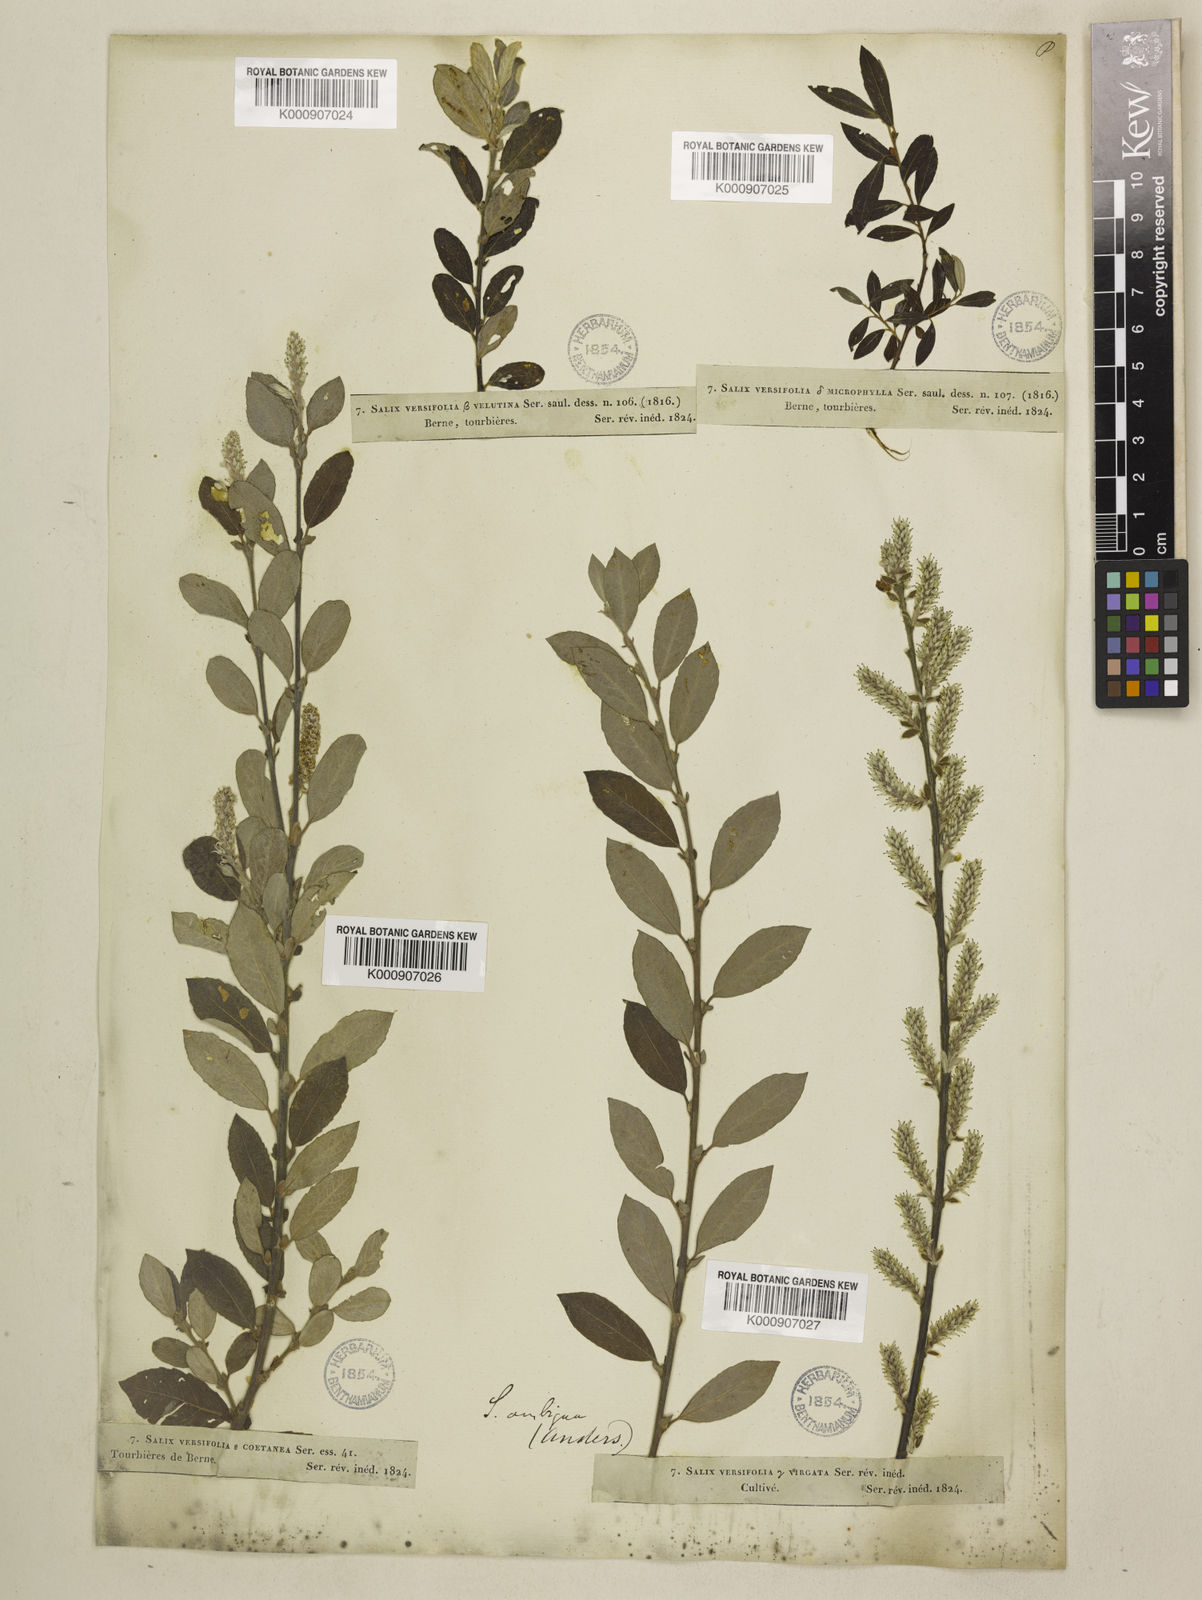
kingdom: Plantae
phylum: Tracheophyta
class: Magnoliopsida
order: Malpighiales
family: Salicaceae
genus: Salix
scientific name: Salix glauca
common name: Glaucous willow
